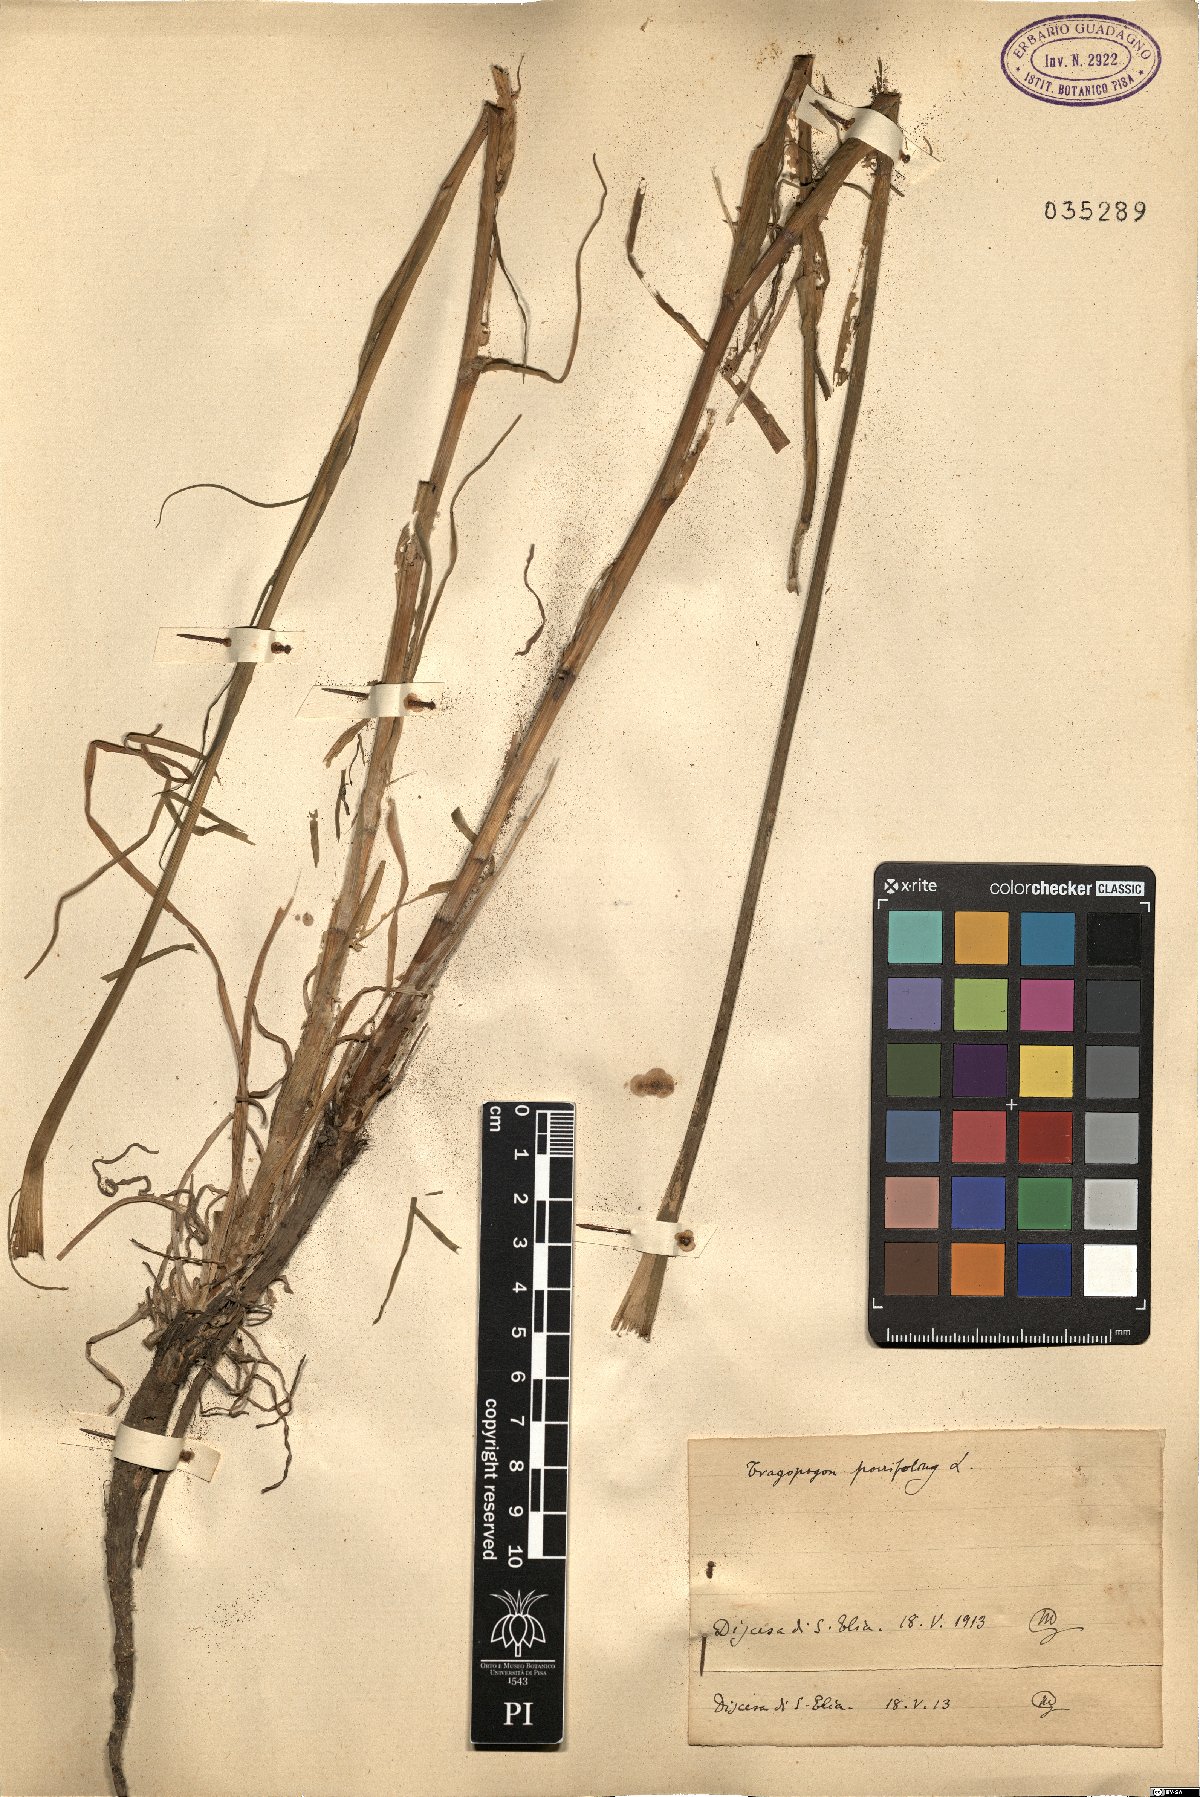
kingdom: Plantae
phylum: Tracheophyta
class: Magnoliopsida
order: Asterales
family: Asteraceae
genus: Tragopogon
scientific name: Tragopogon porrifolius
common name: Salsify
